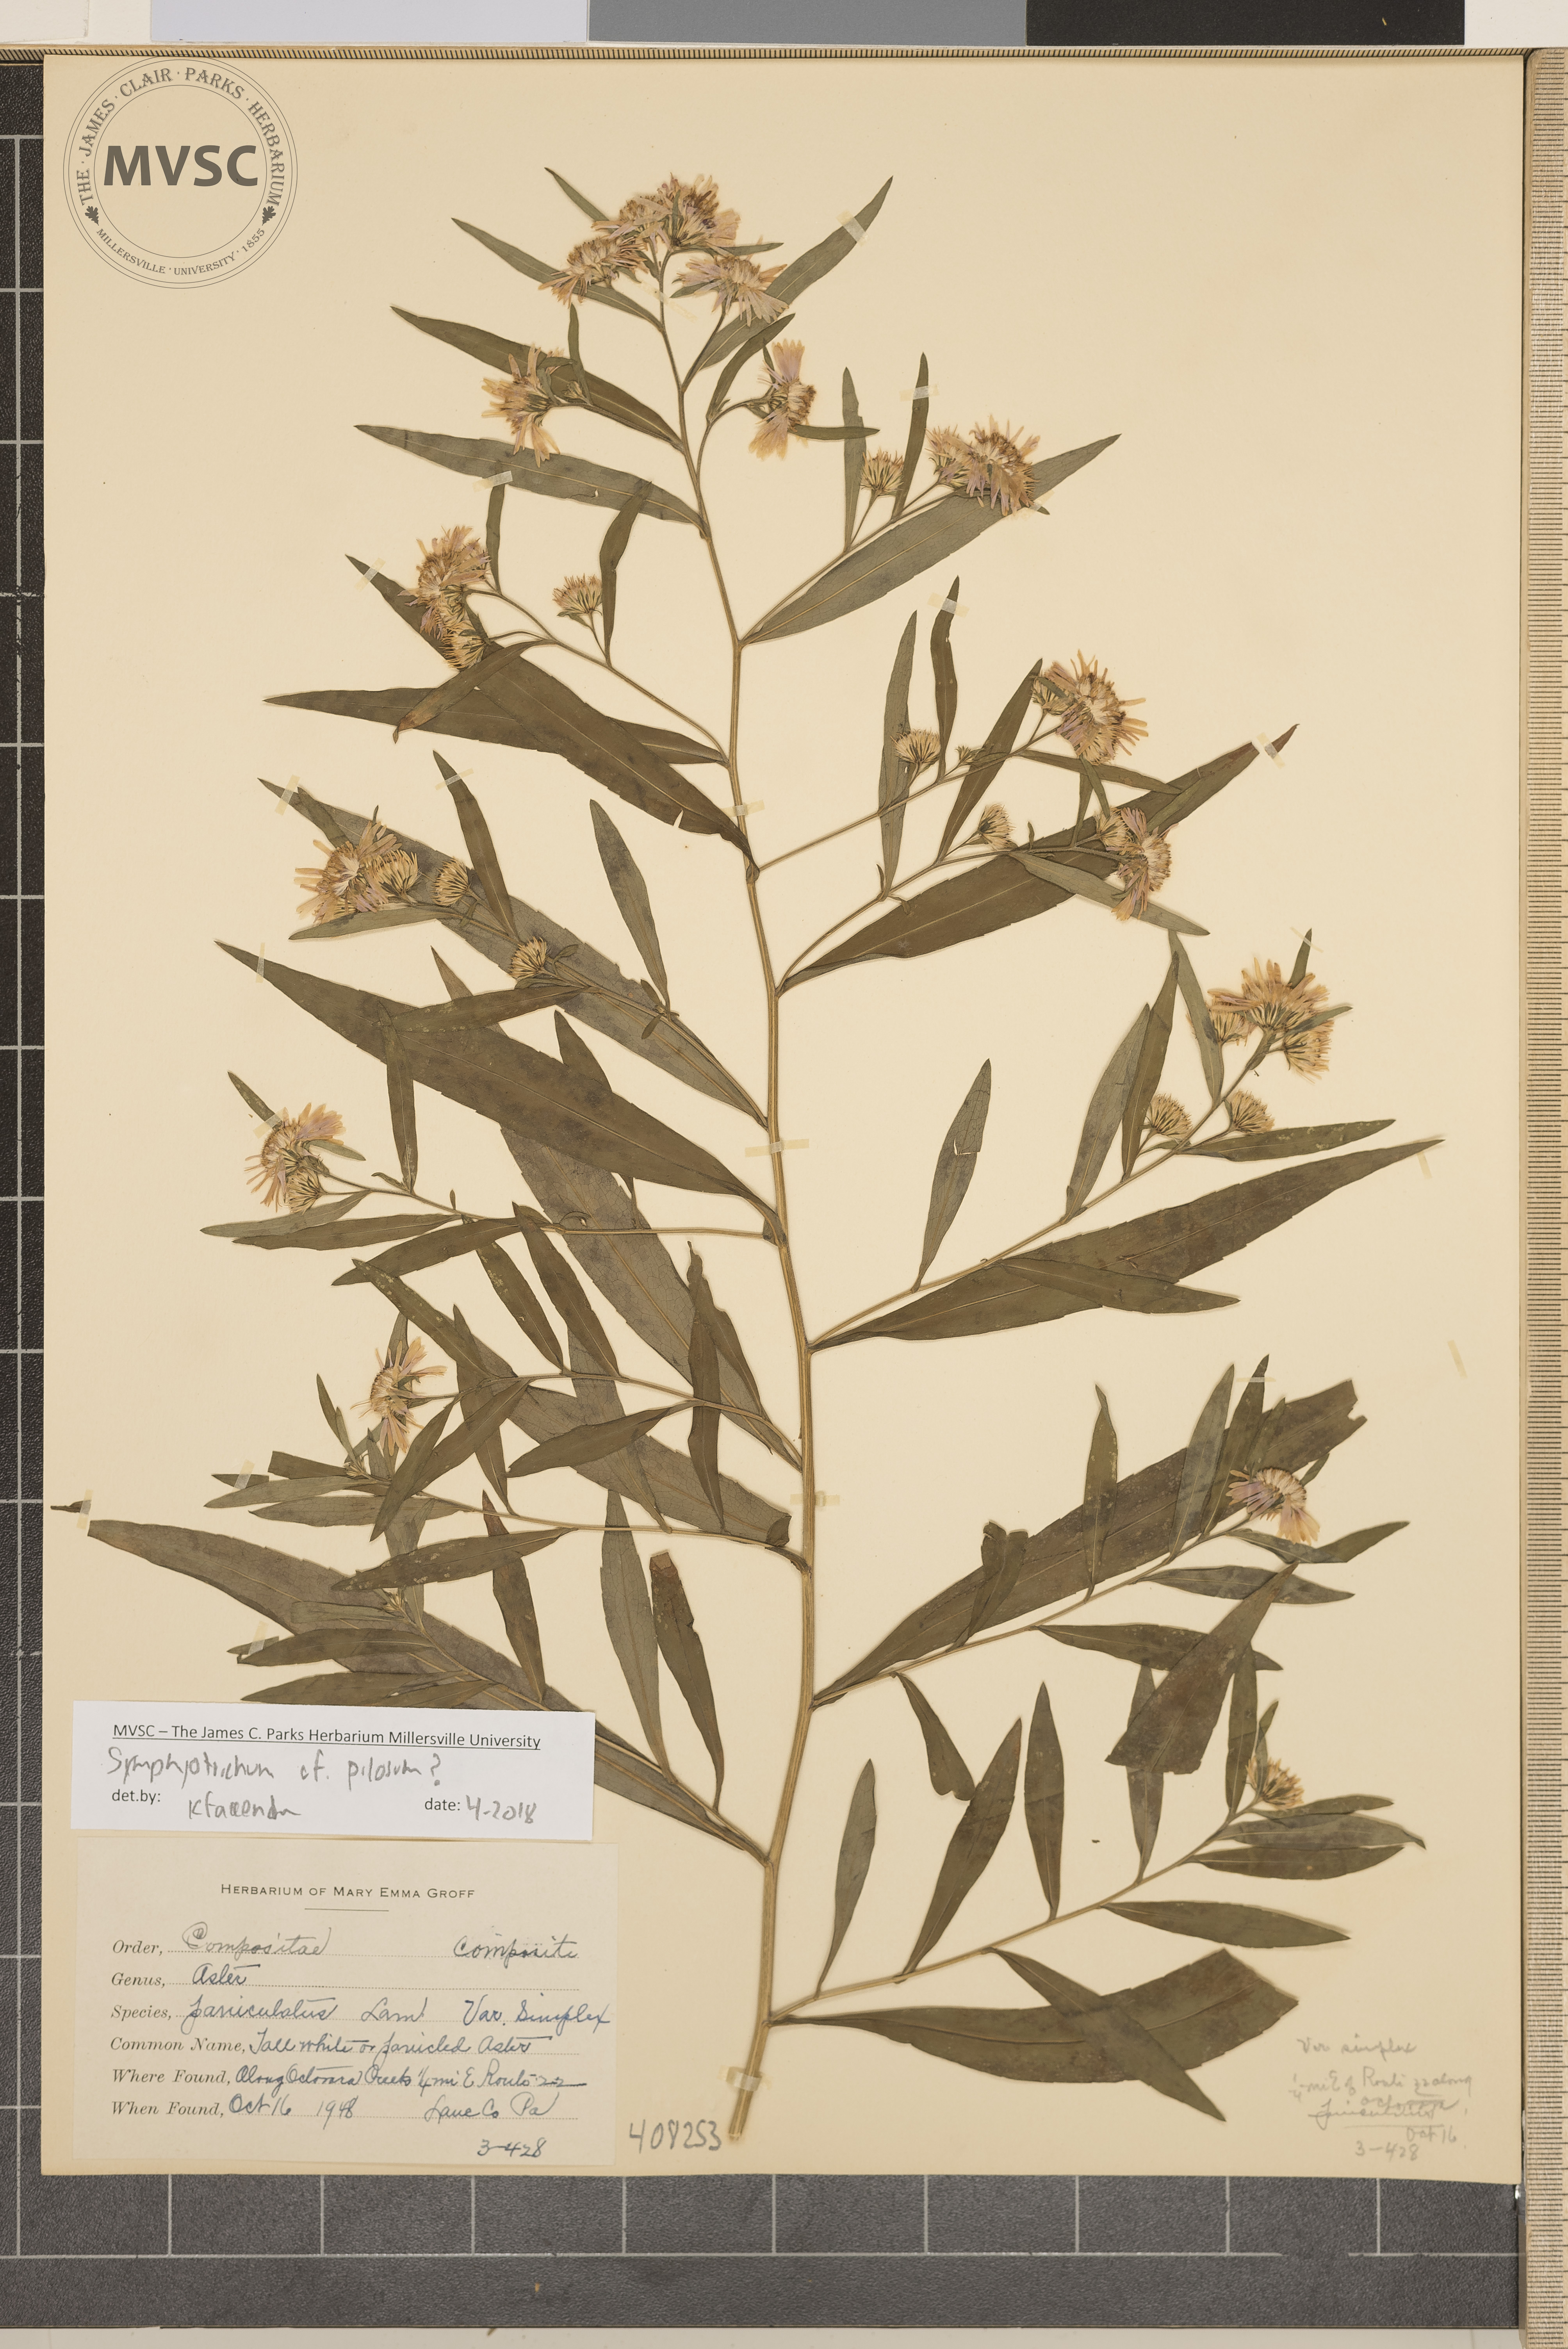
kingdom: Plantae
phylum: Tracheophyta
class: Magnoliopsida
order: Asterales
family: Asteraceae
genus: Symphyotrichum
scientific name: Symphyotrichum pilosum
